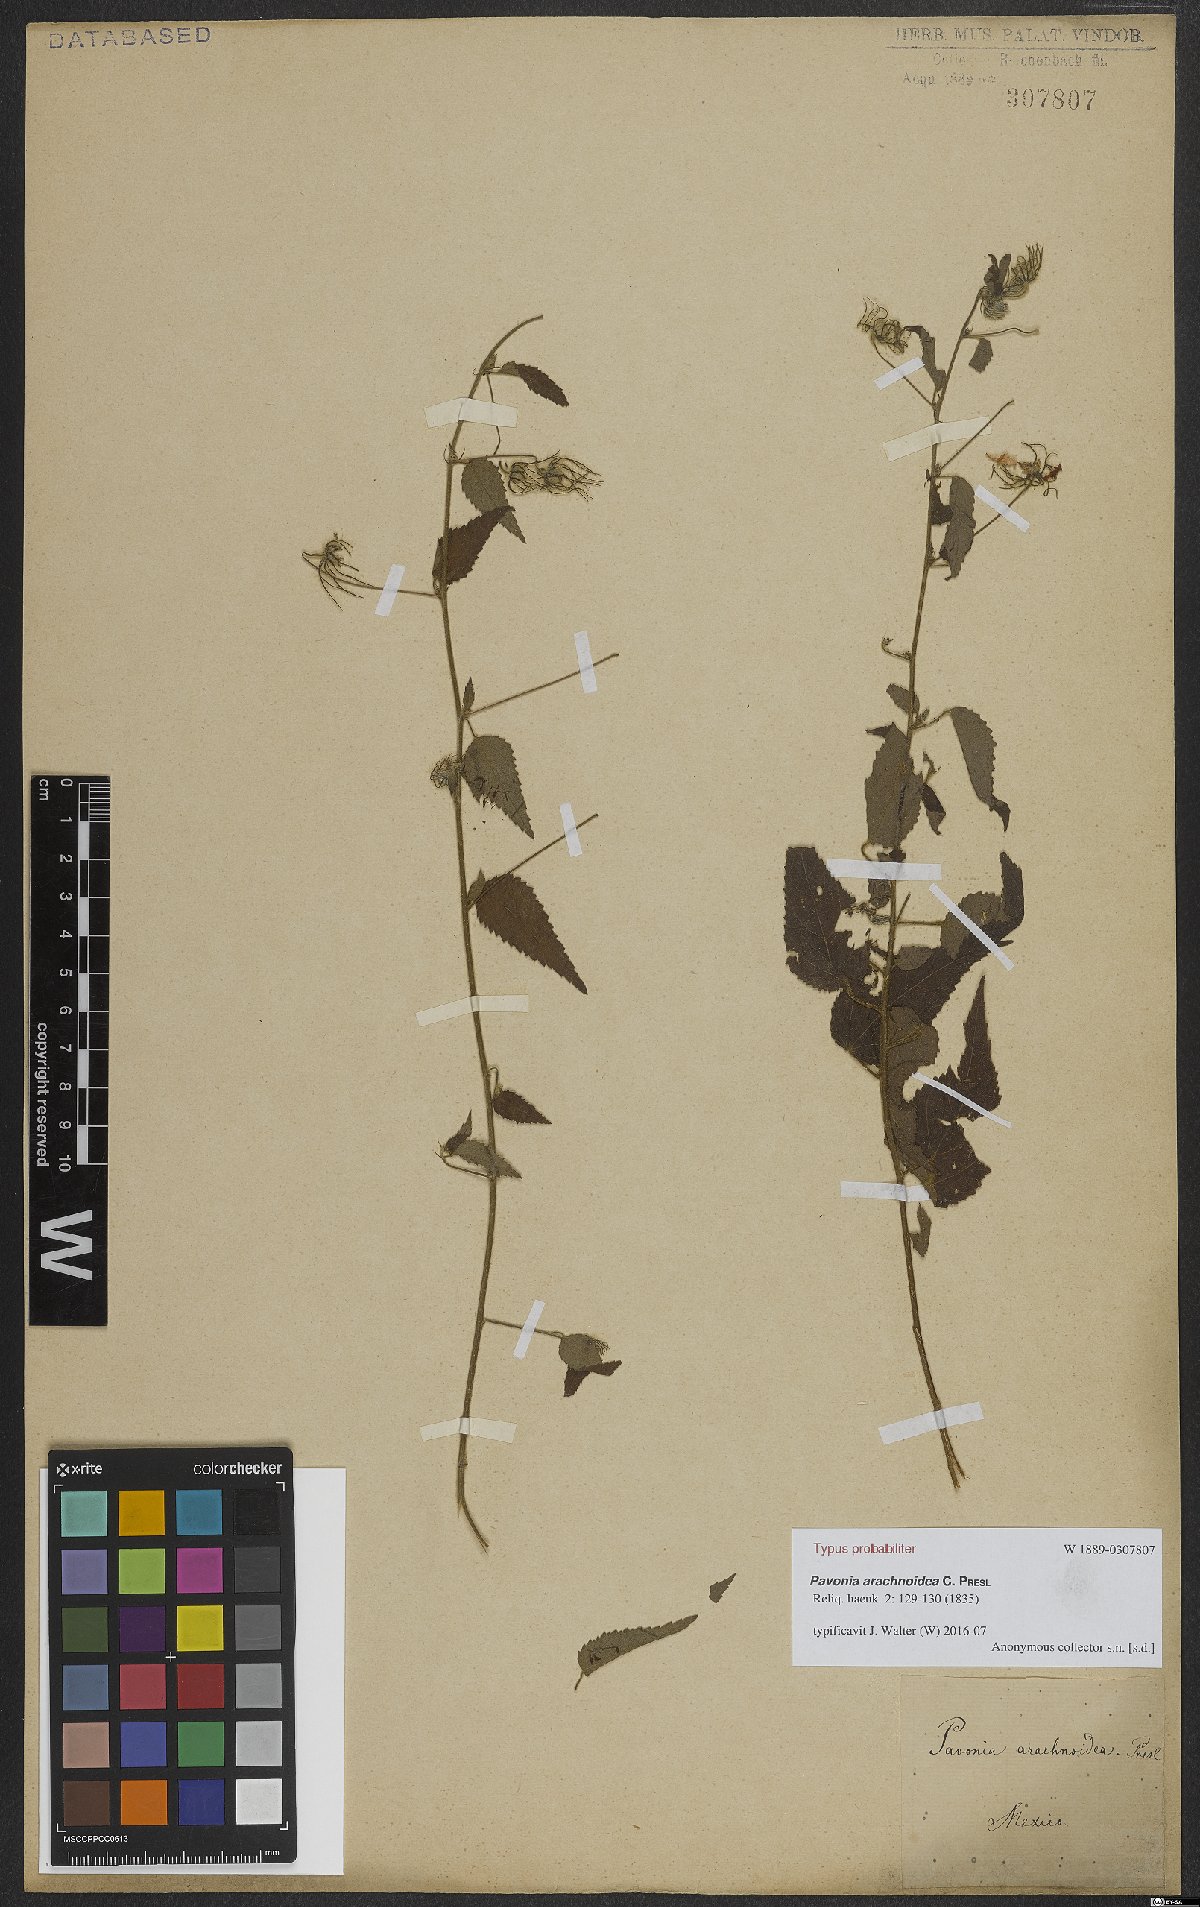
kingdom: Plantae
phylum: Tracheophyta
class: Magnoliopsida
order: Malvales
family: Malvaceae
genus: Pavonia
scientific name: Pavonia arachnoidea
